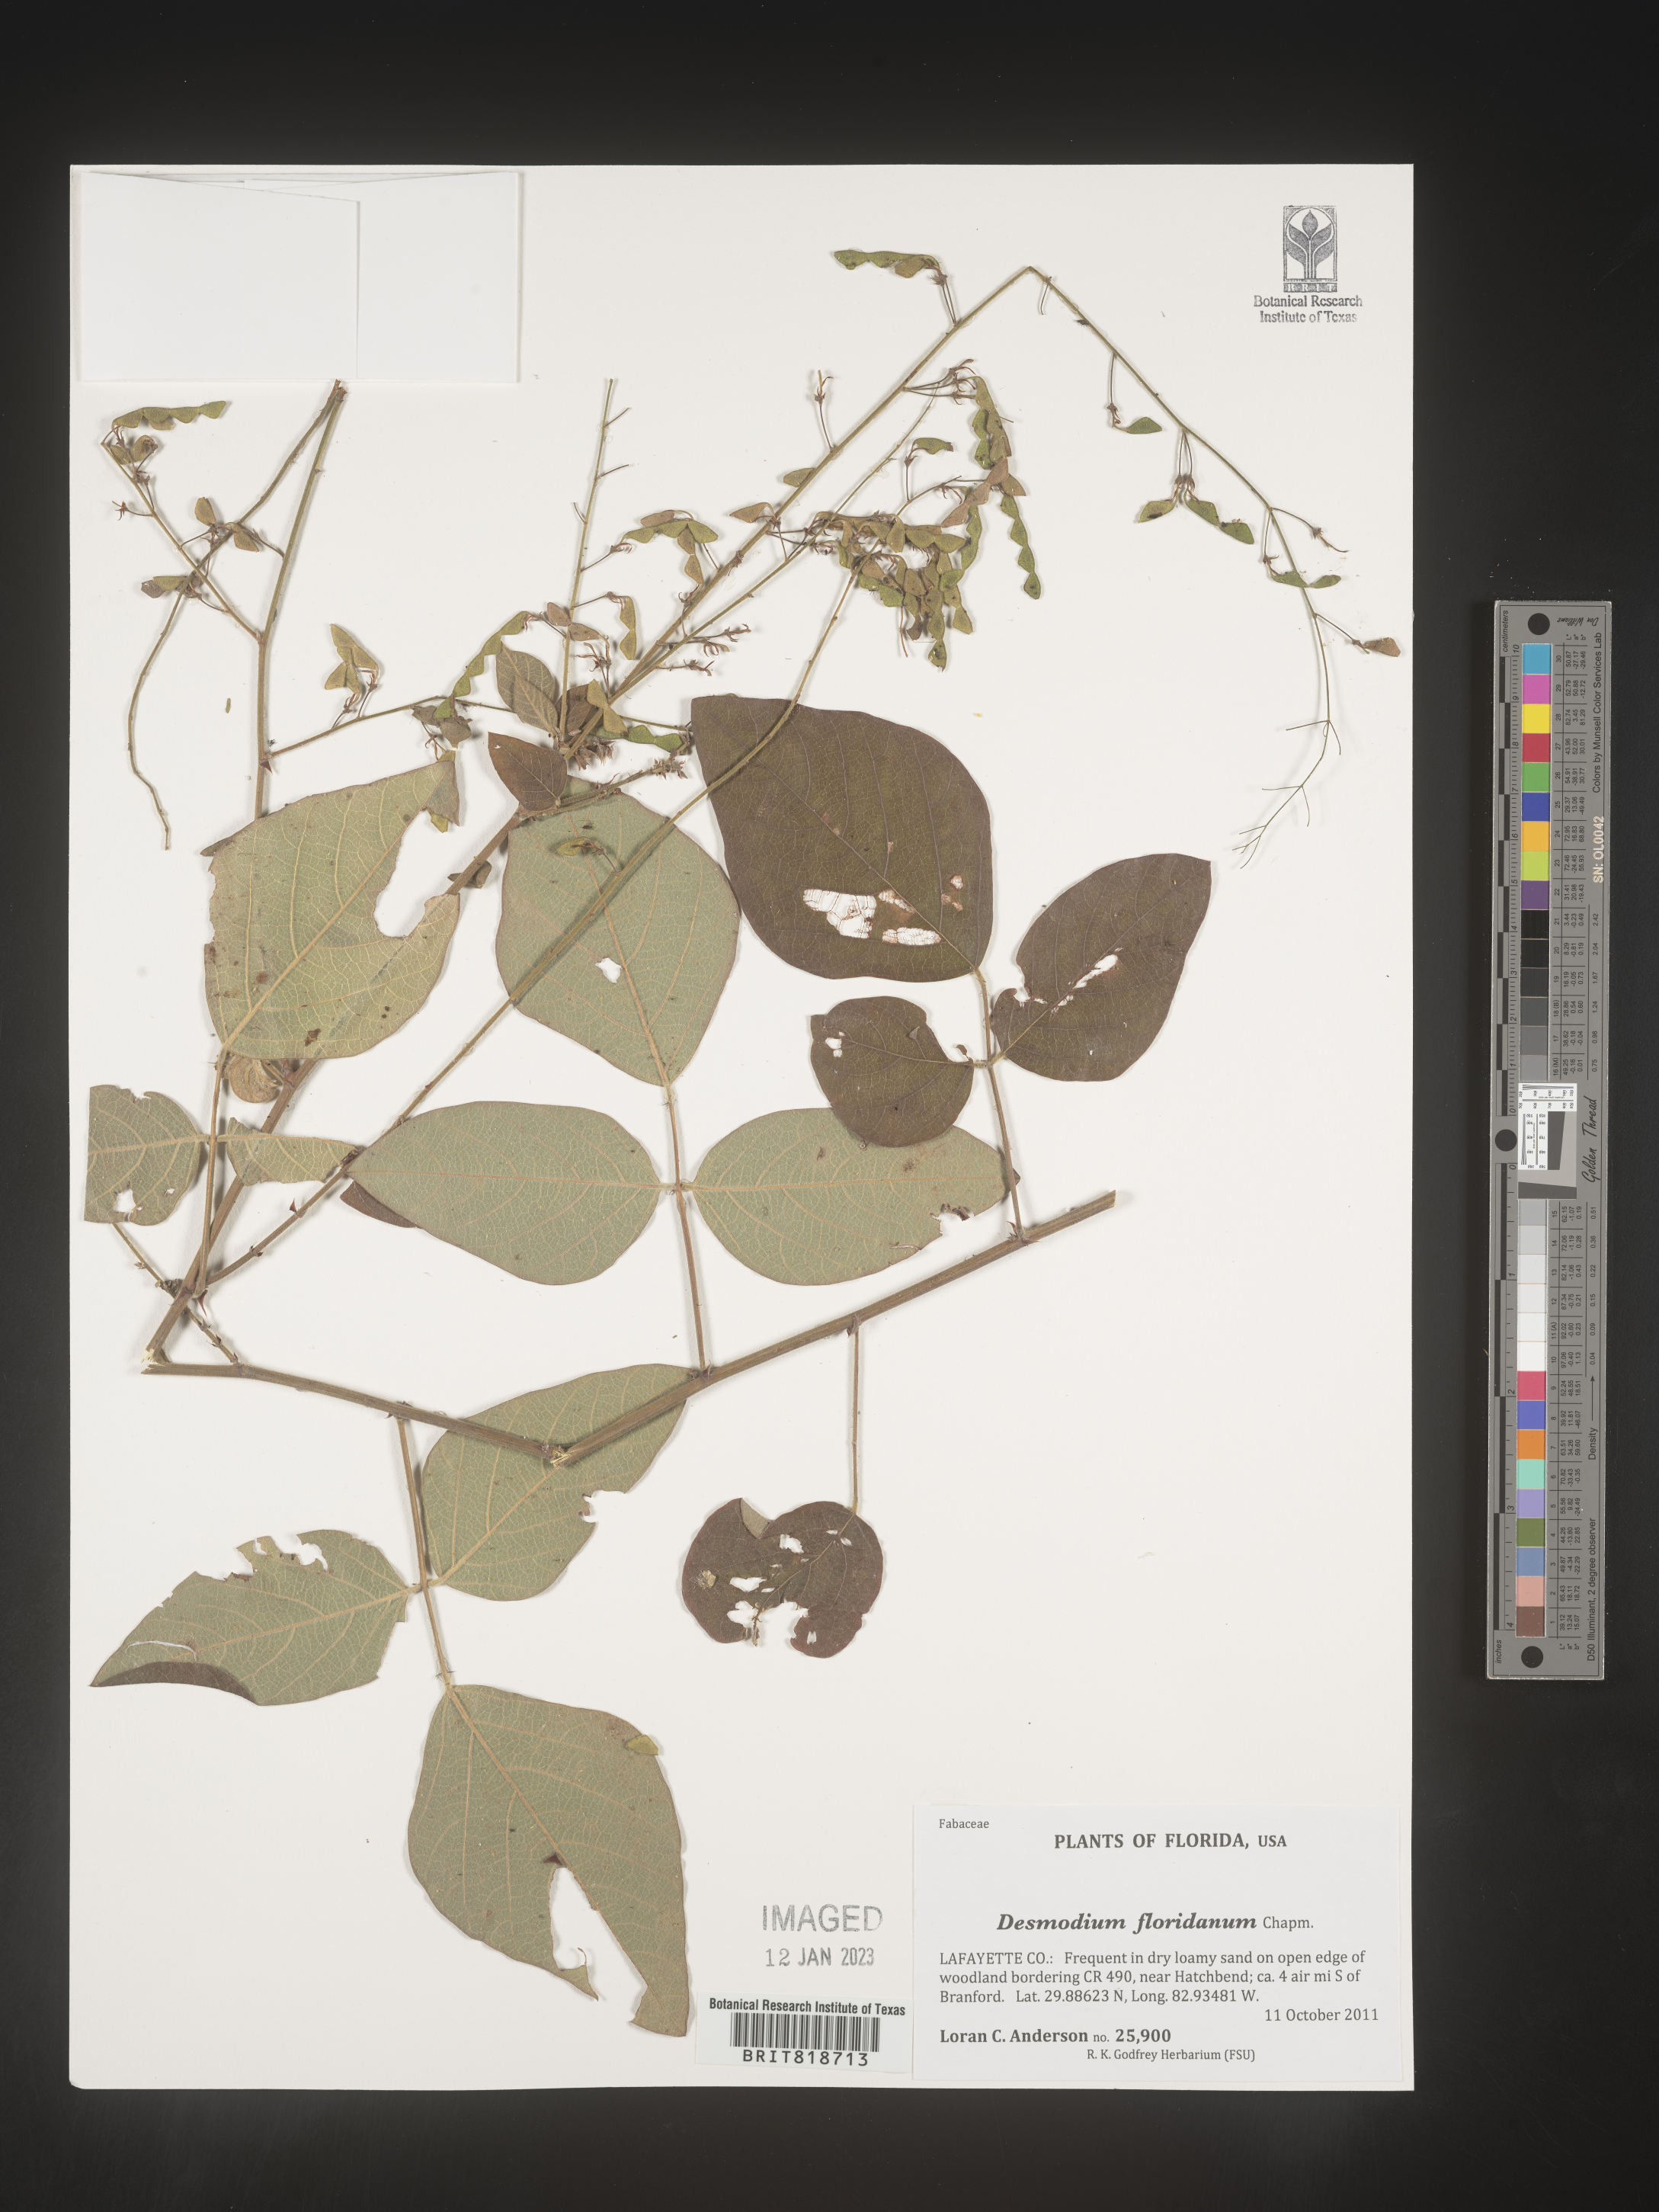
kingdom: Plantae
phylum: Tracheophyta
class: Magnoliopsida
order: Fabales
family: Fabaceae
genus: Desmodium
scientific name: Desmodium
